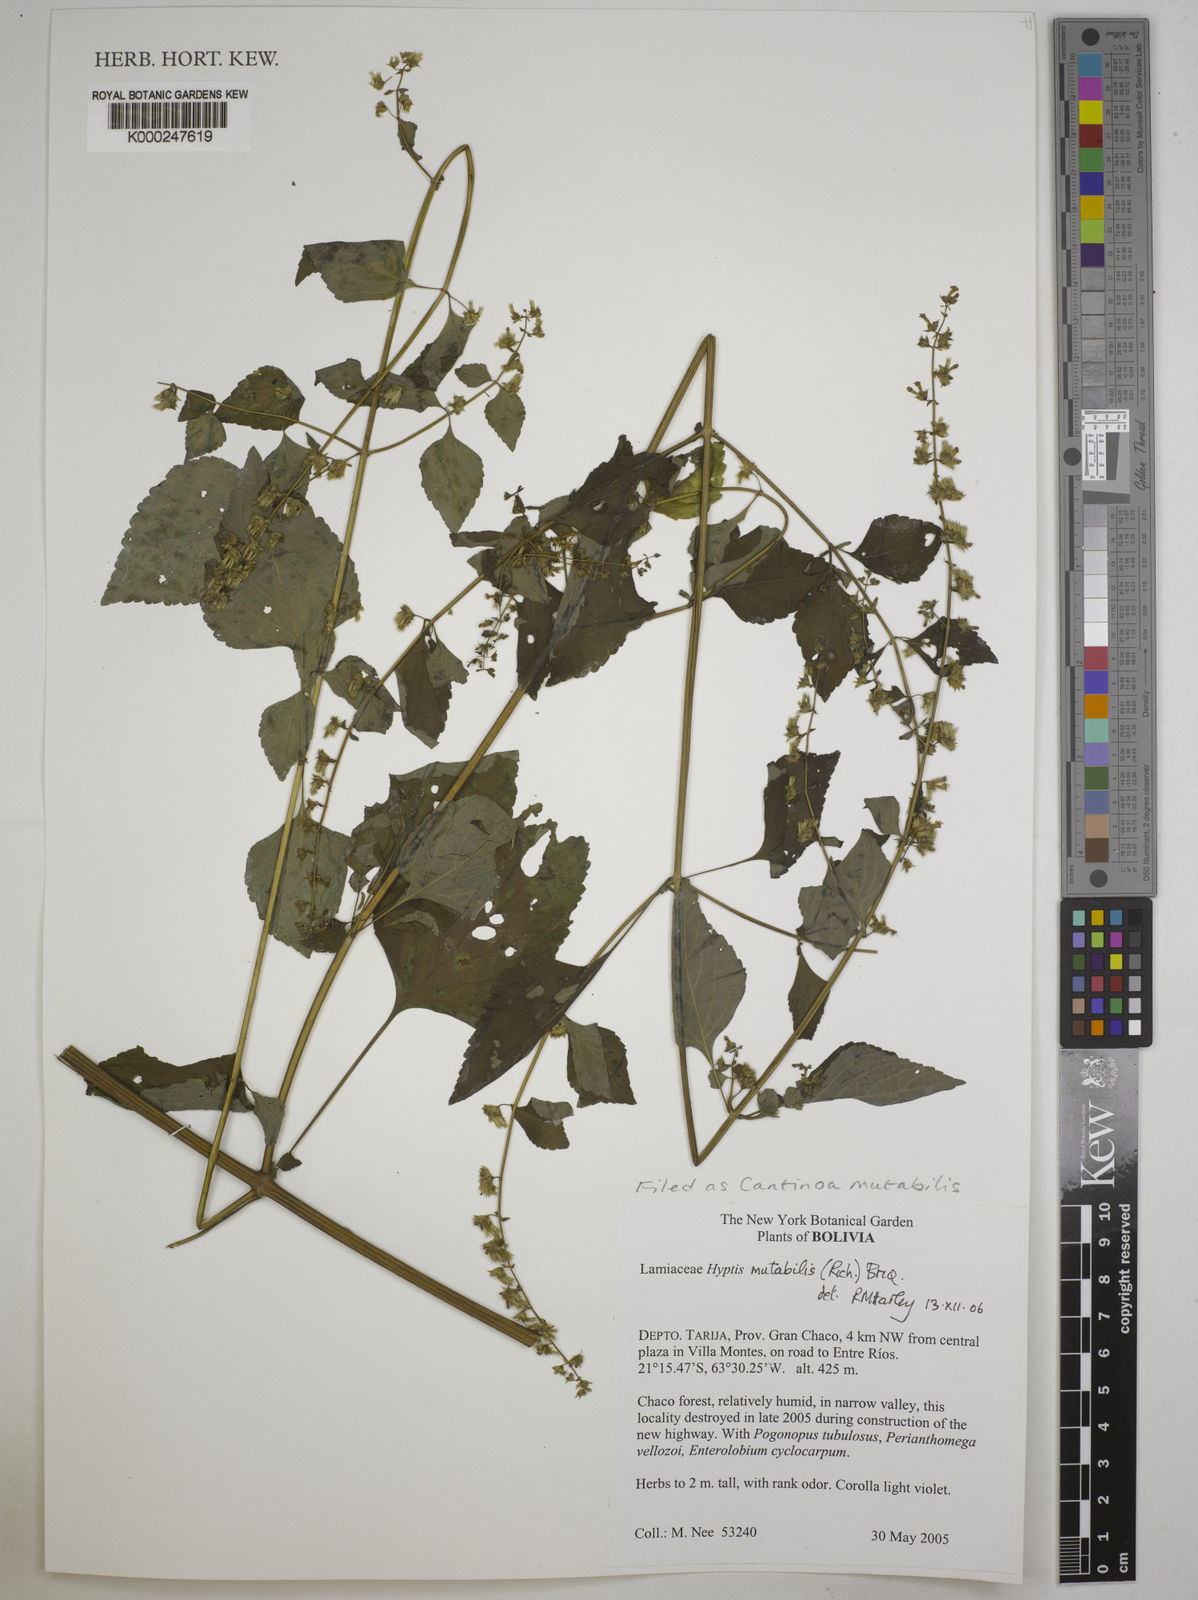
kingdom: Plantae
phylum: Tracheophyta
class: Magnoliopsida
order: Lamiales
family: Lamiaceae
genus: Cantinoa
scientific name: Cantinoa mutabilis
